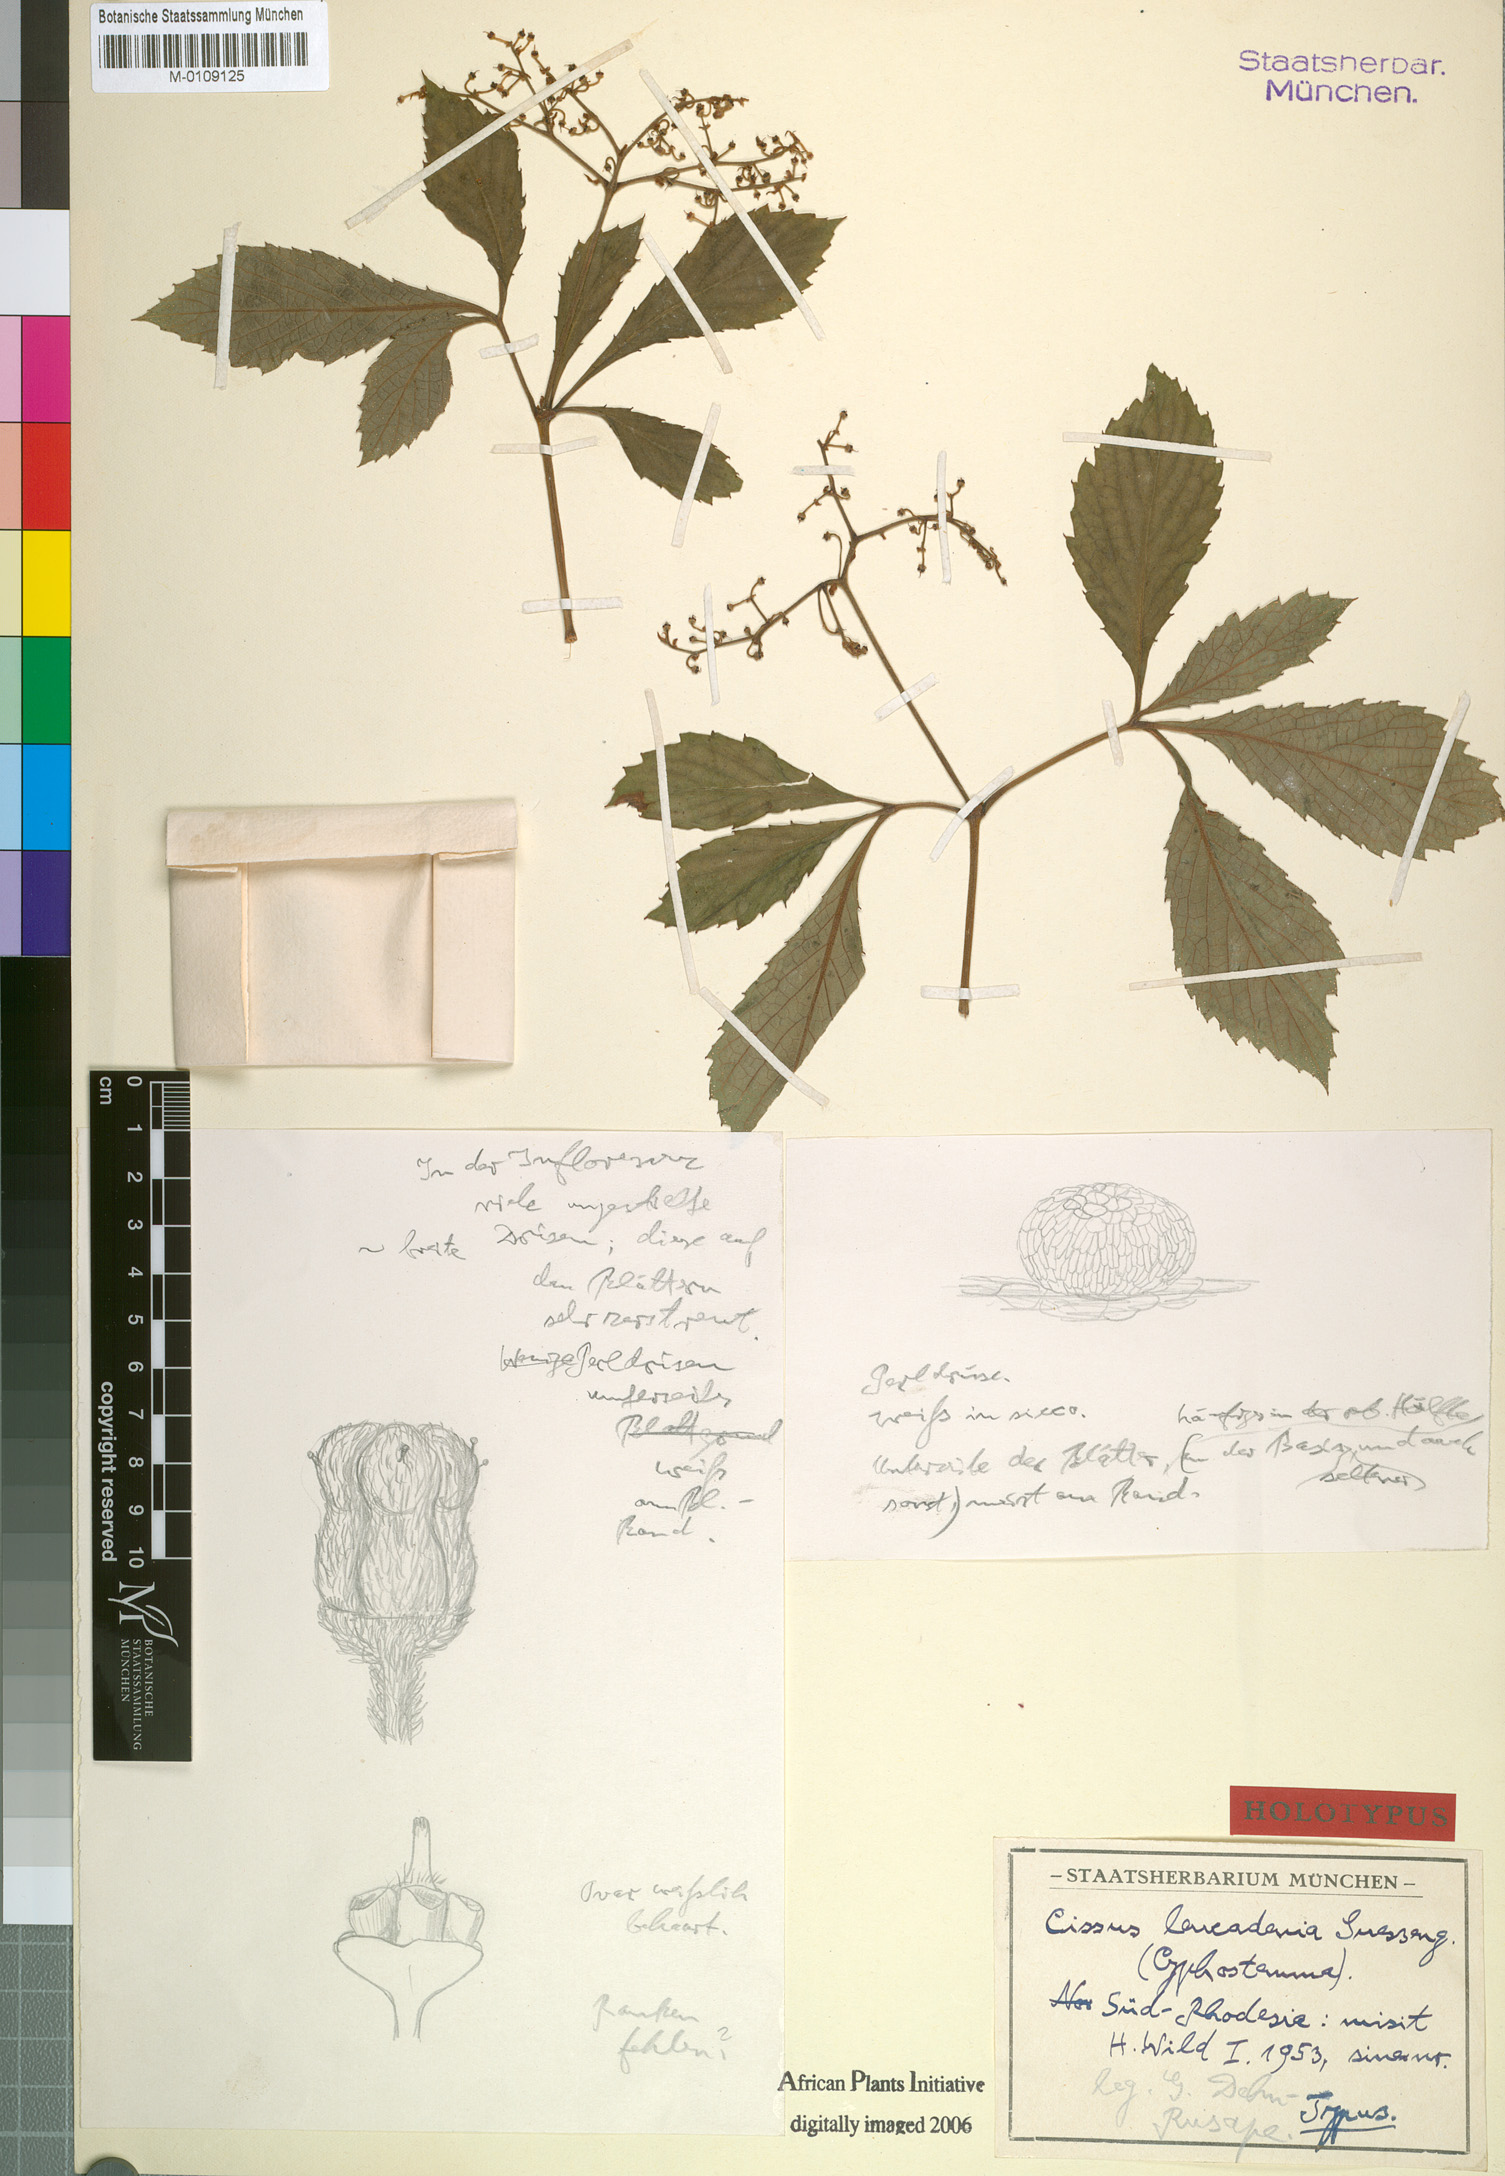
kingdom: Plantae
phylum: Tracheophyta
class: Magnoliopsida
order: Vitales
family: Vitaceae
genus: Cyphostemma
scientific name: Cyphostemma gigantophyllum
